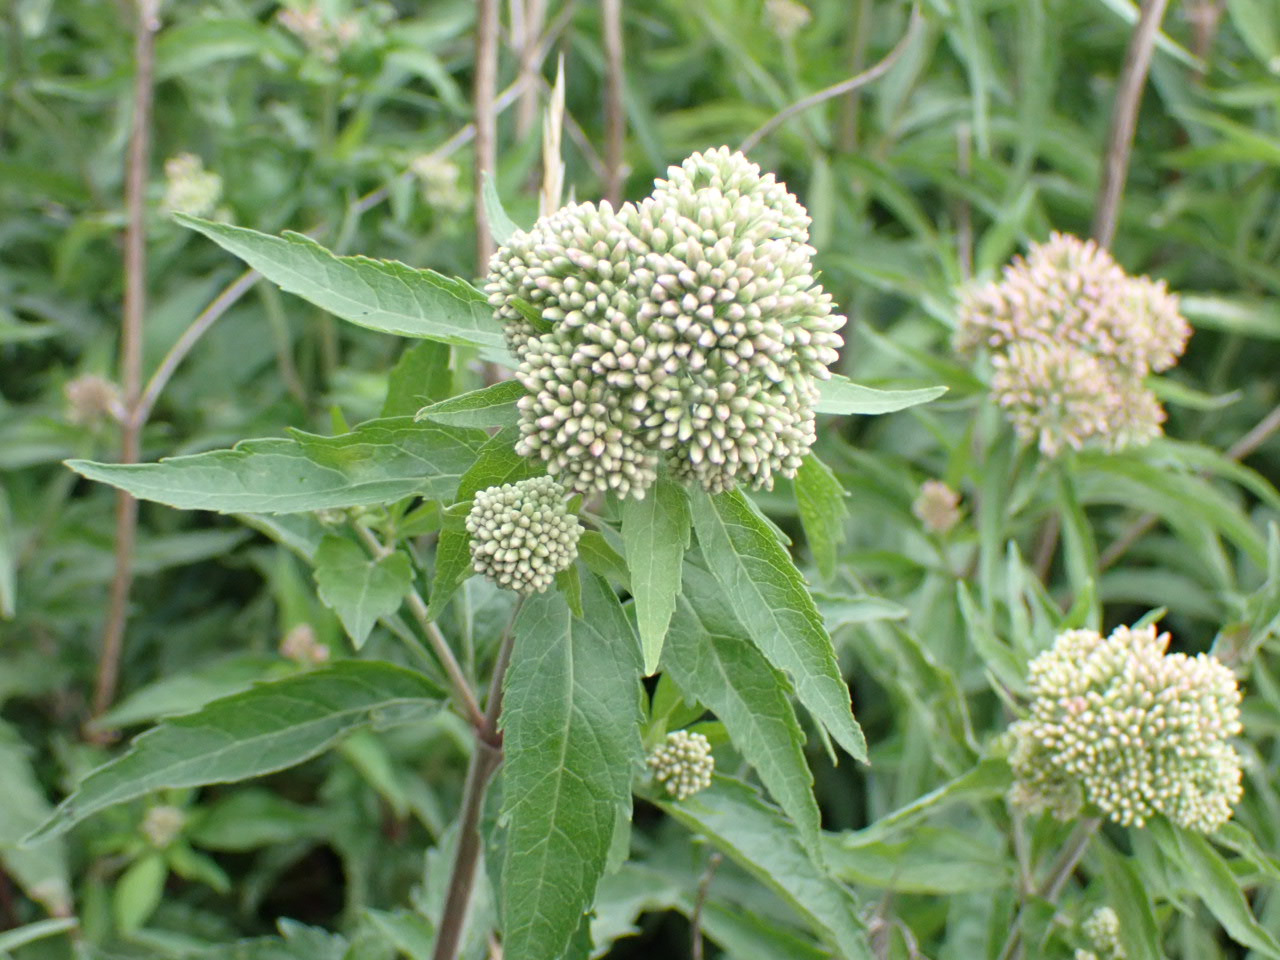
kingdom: Plantae
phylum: Tracheophyta
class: Magnoliopsida
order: Asterales
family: Asteraceae
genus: Eupatorium
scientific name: Eupatorium cannabinum
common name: Hjortetrøst
